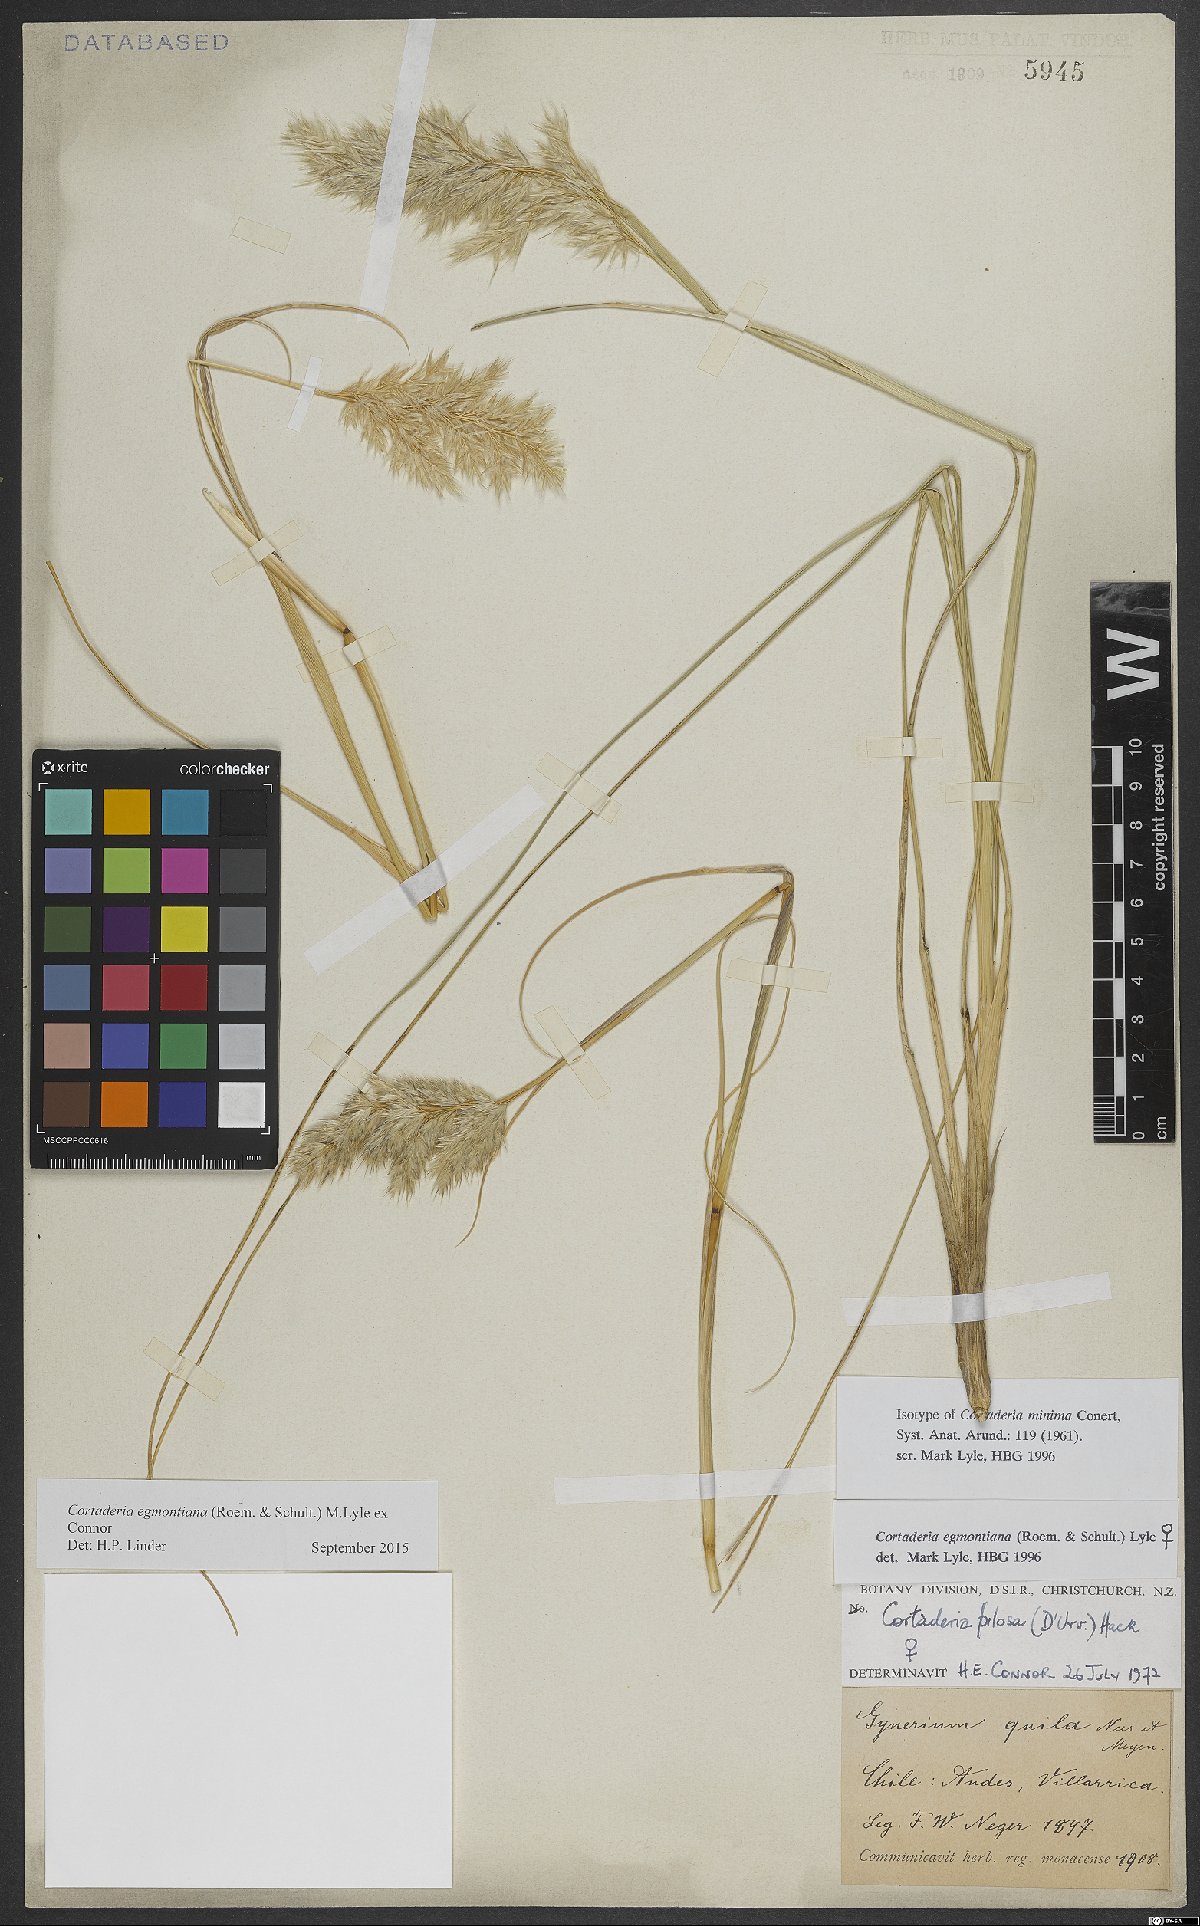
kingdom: Plantae
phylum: Tracheophyta
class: Liliopsida
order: Poales
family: Poaceae
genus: Cortaderia
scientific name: Cortaderia egmontiana
